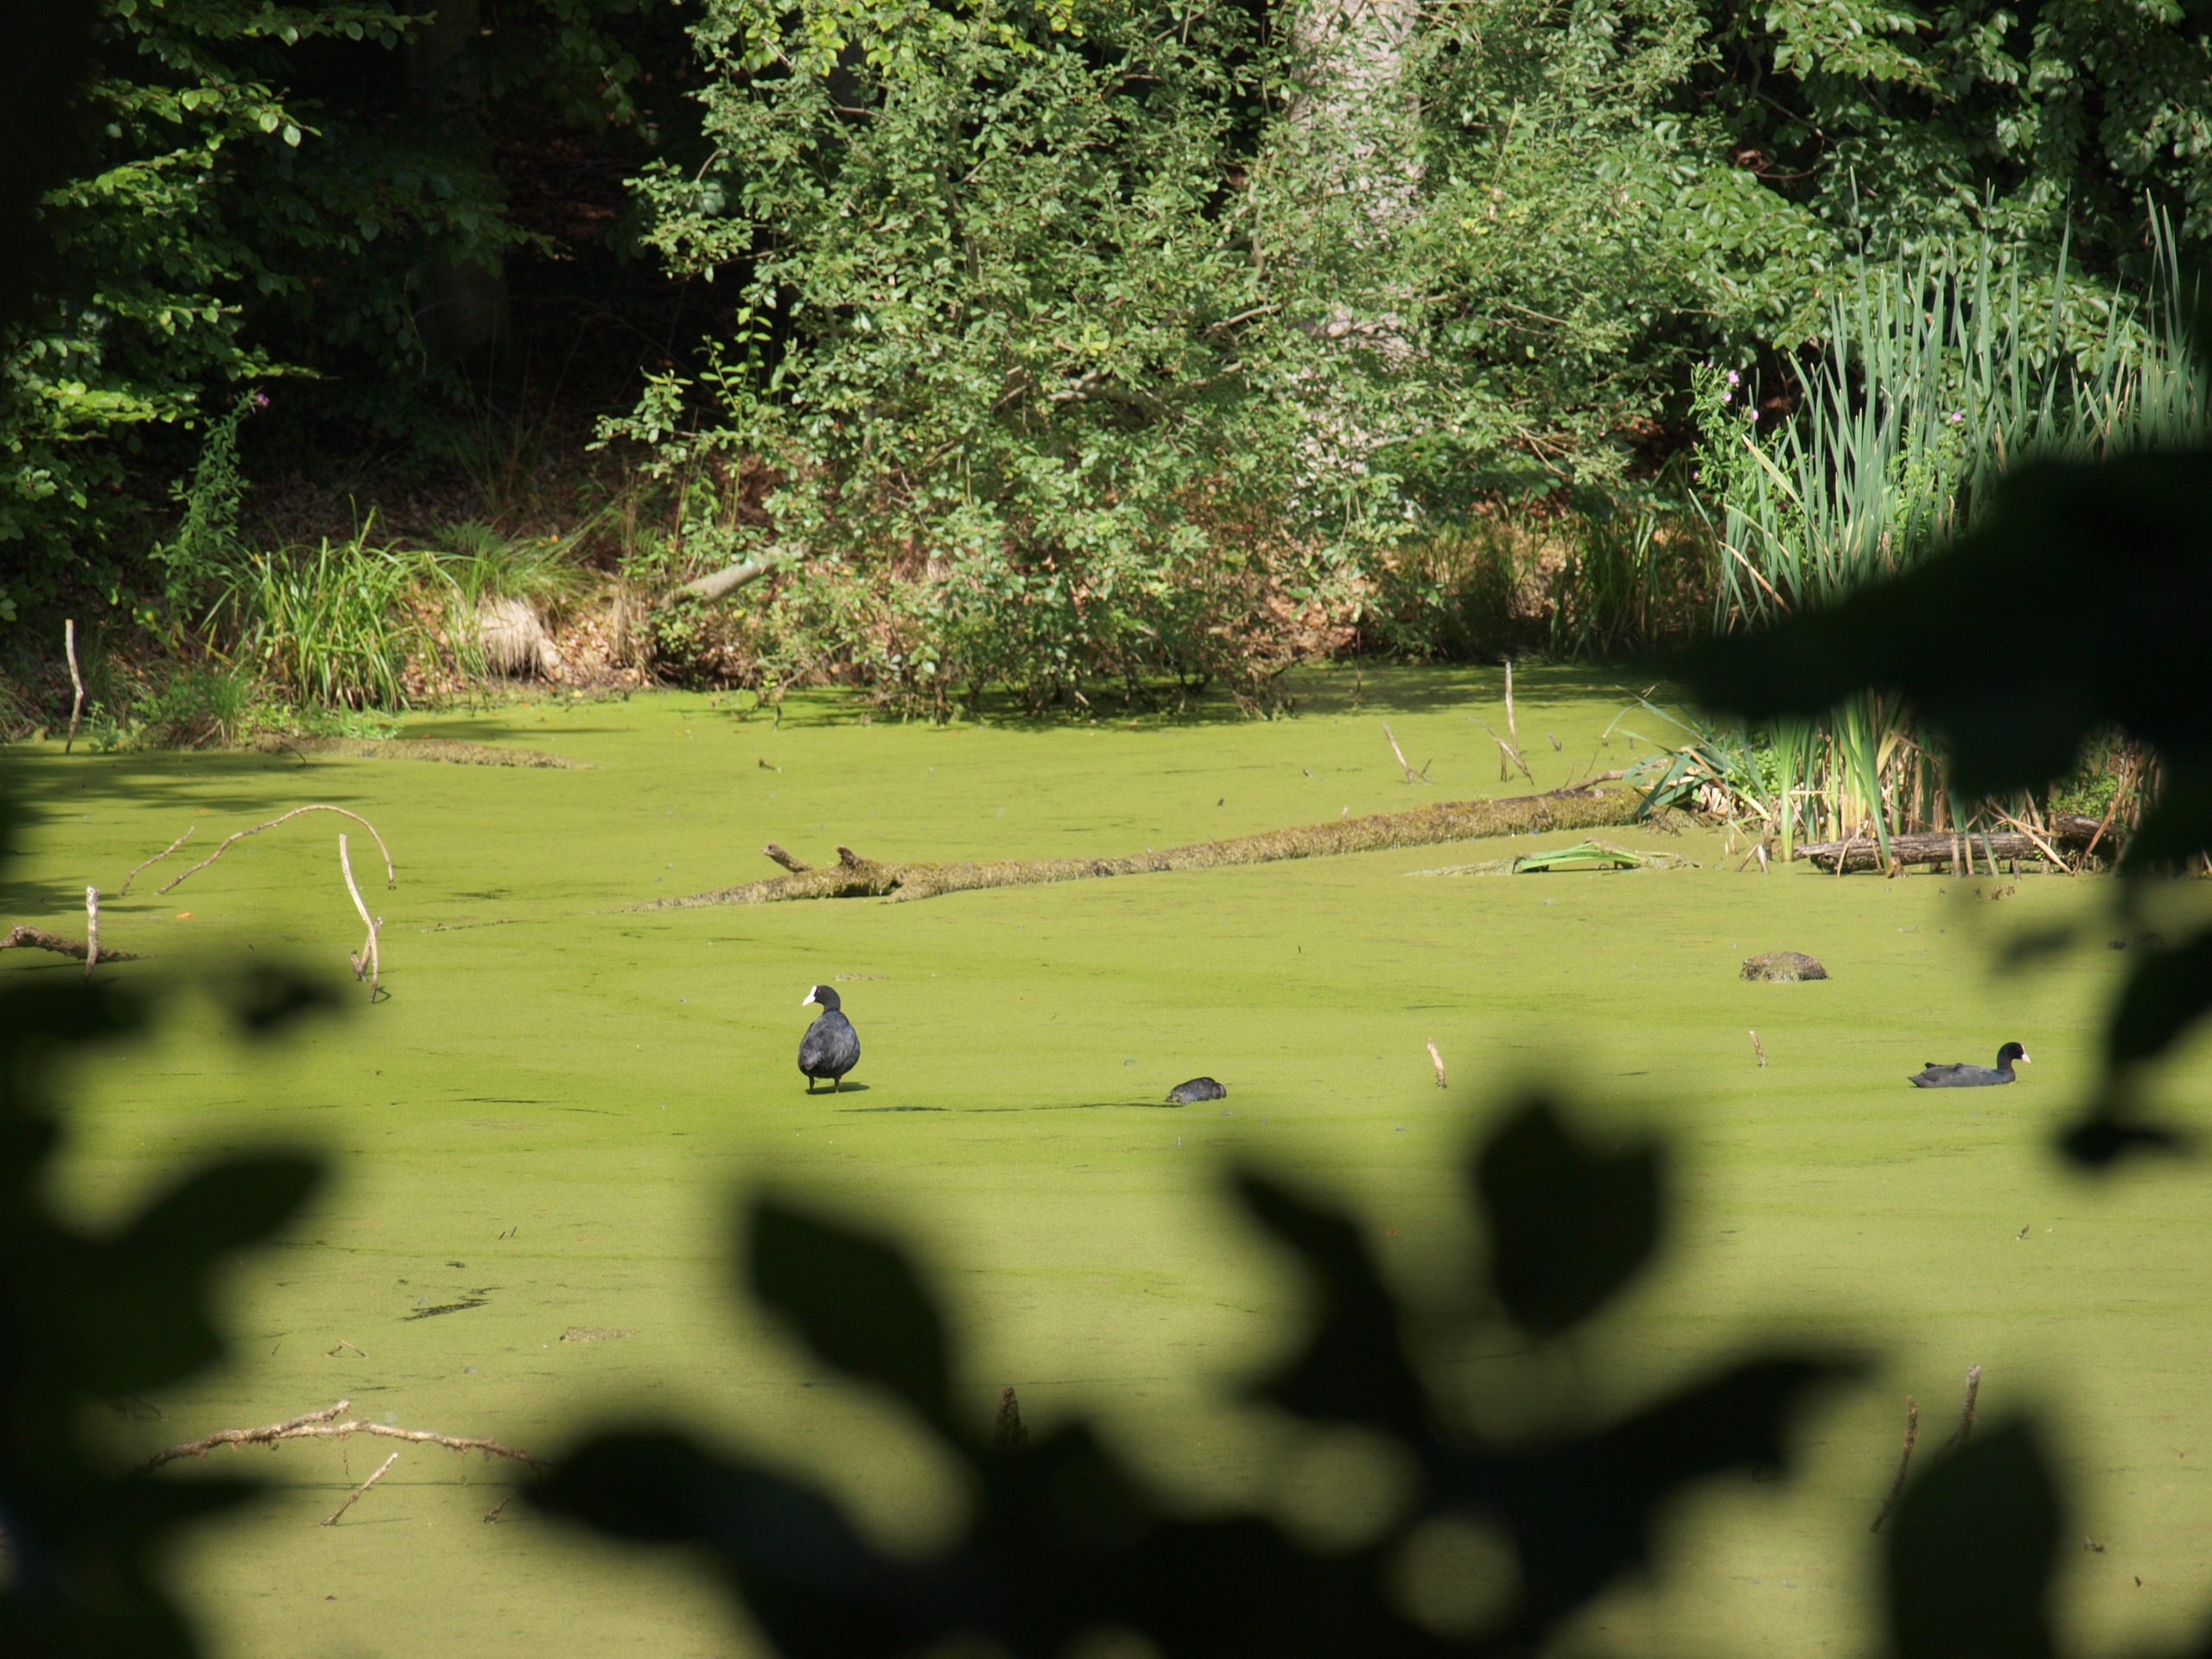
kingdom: Animalia
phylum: Chordata
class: Aves
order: Gruiformes
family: Rallidae
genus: Fulica
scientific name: Fulica atra
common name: Blishøne
